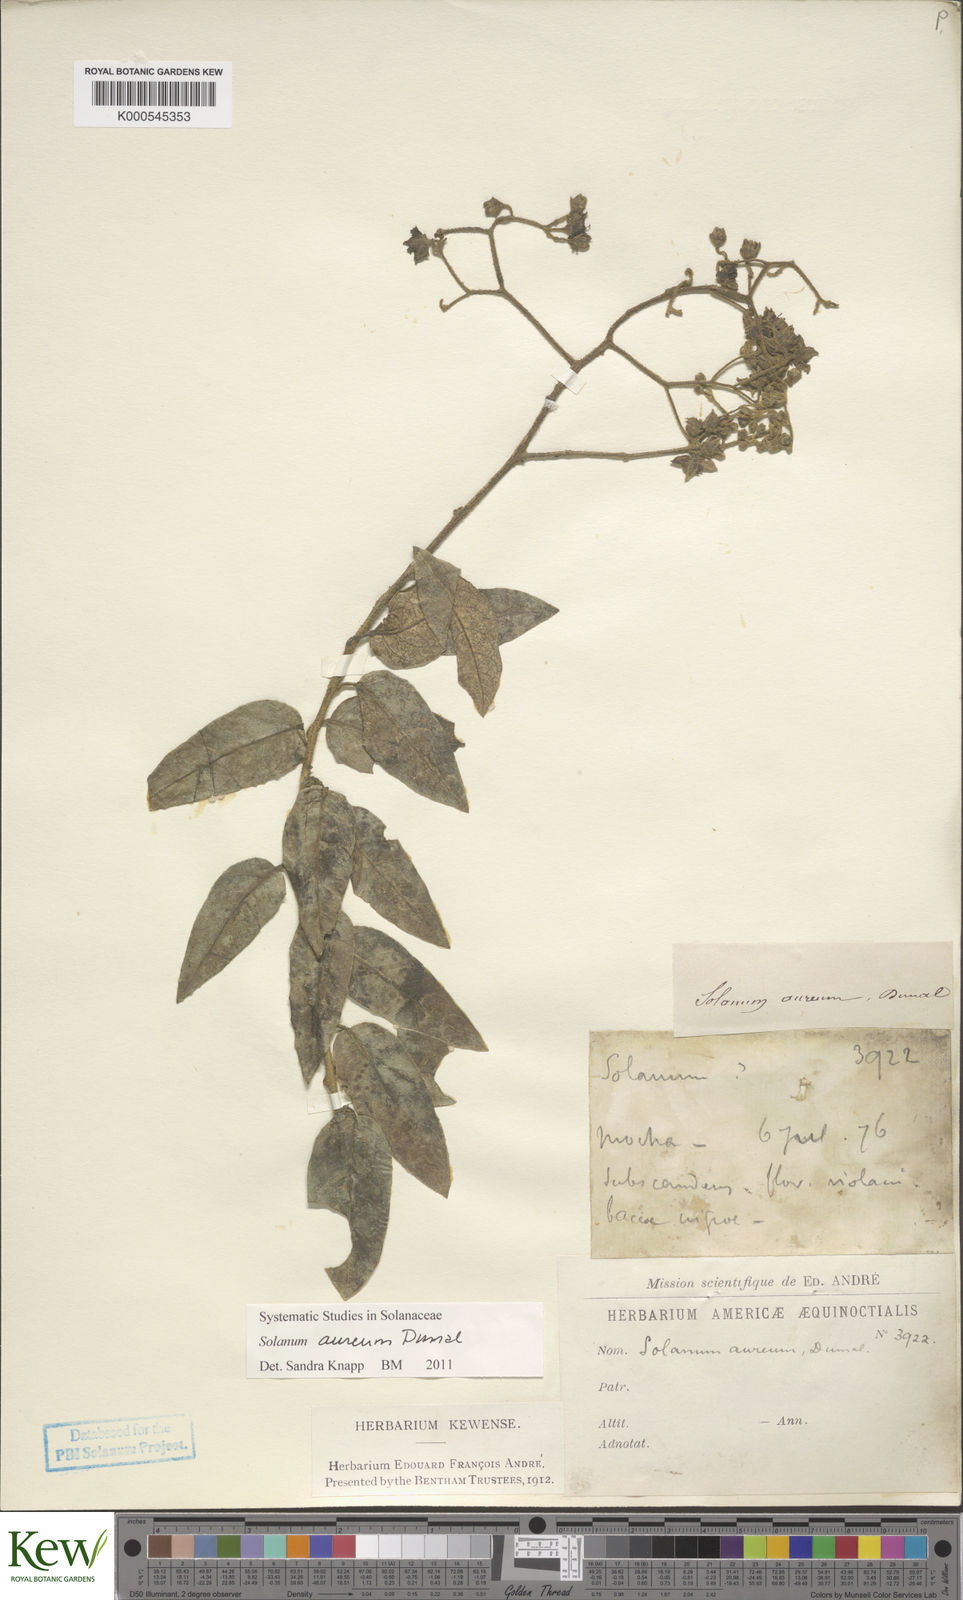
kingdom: Plantae
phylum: Tracheophyta
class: Magnoliopsida
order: Solanales
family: Solanaceae
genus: Solanum
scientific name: Solanum aureum
